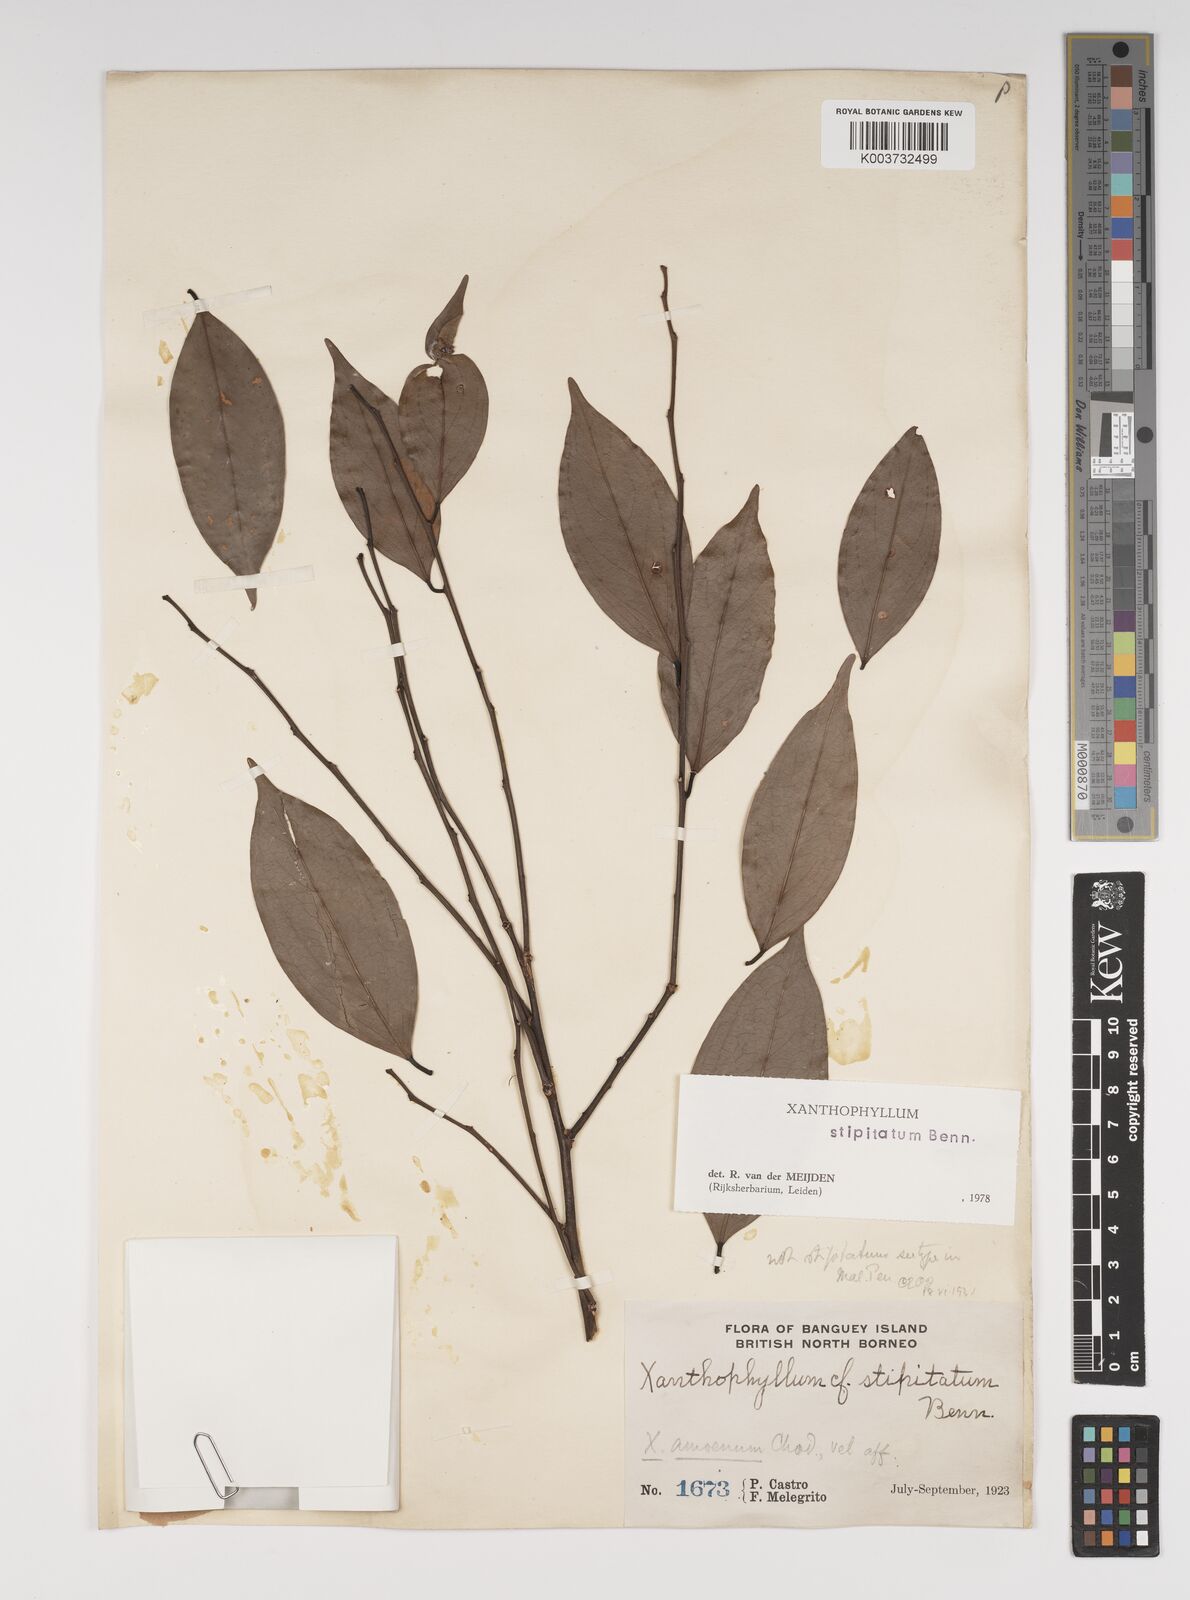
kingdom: Plantae
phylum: Tracheophyta
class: Magnoliopsida
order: Fabales
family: Polygalaceae
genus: Xanthophyllum
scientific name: Xanthophyllum stipitatum
